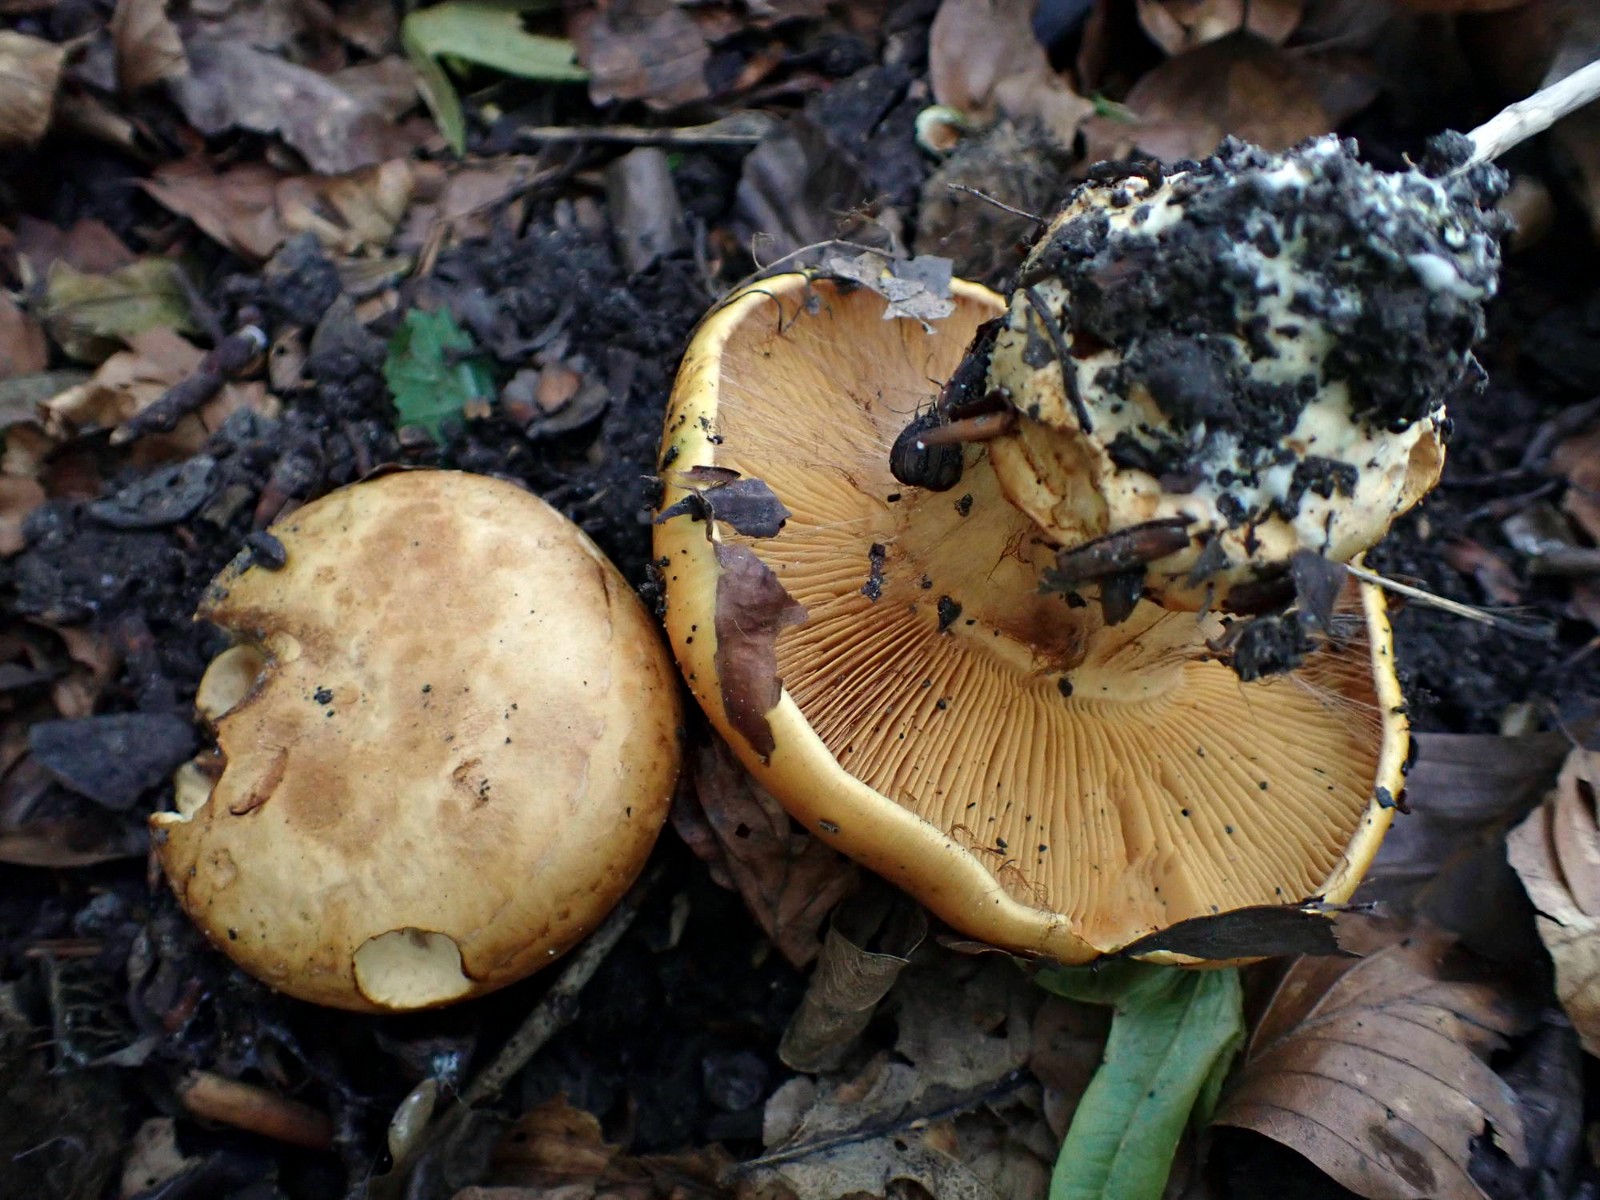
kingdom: Fungi
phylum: Basidiomycota
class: Agaricomycetes
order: Agaricales
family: Cortinariaceae
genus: Calonarius
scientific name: Calonarius olearioides
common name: safran-slørhat
